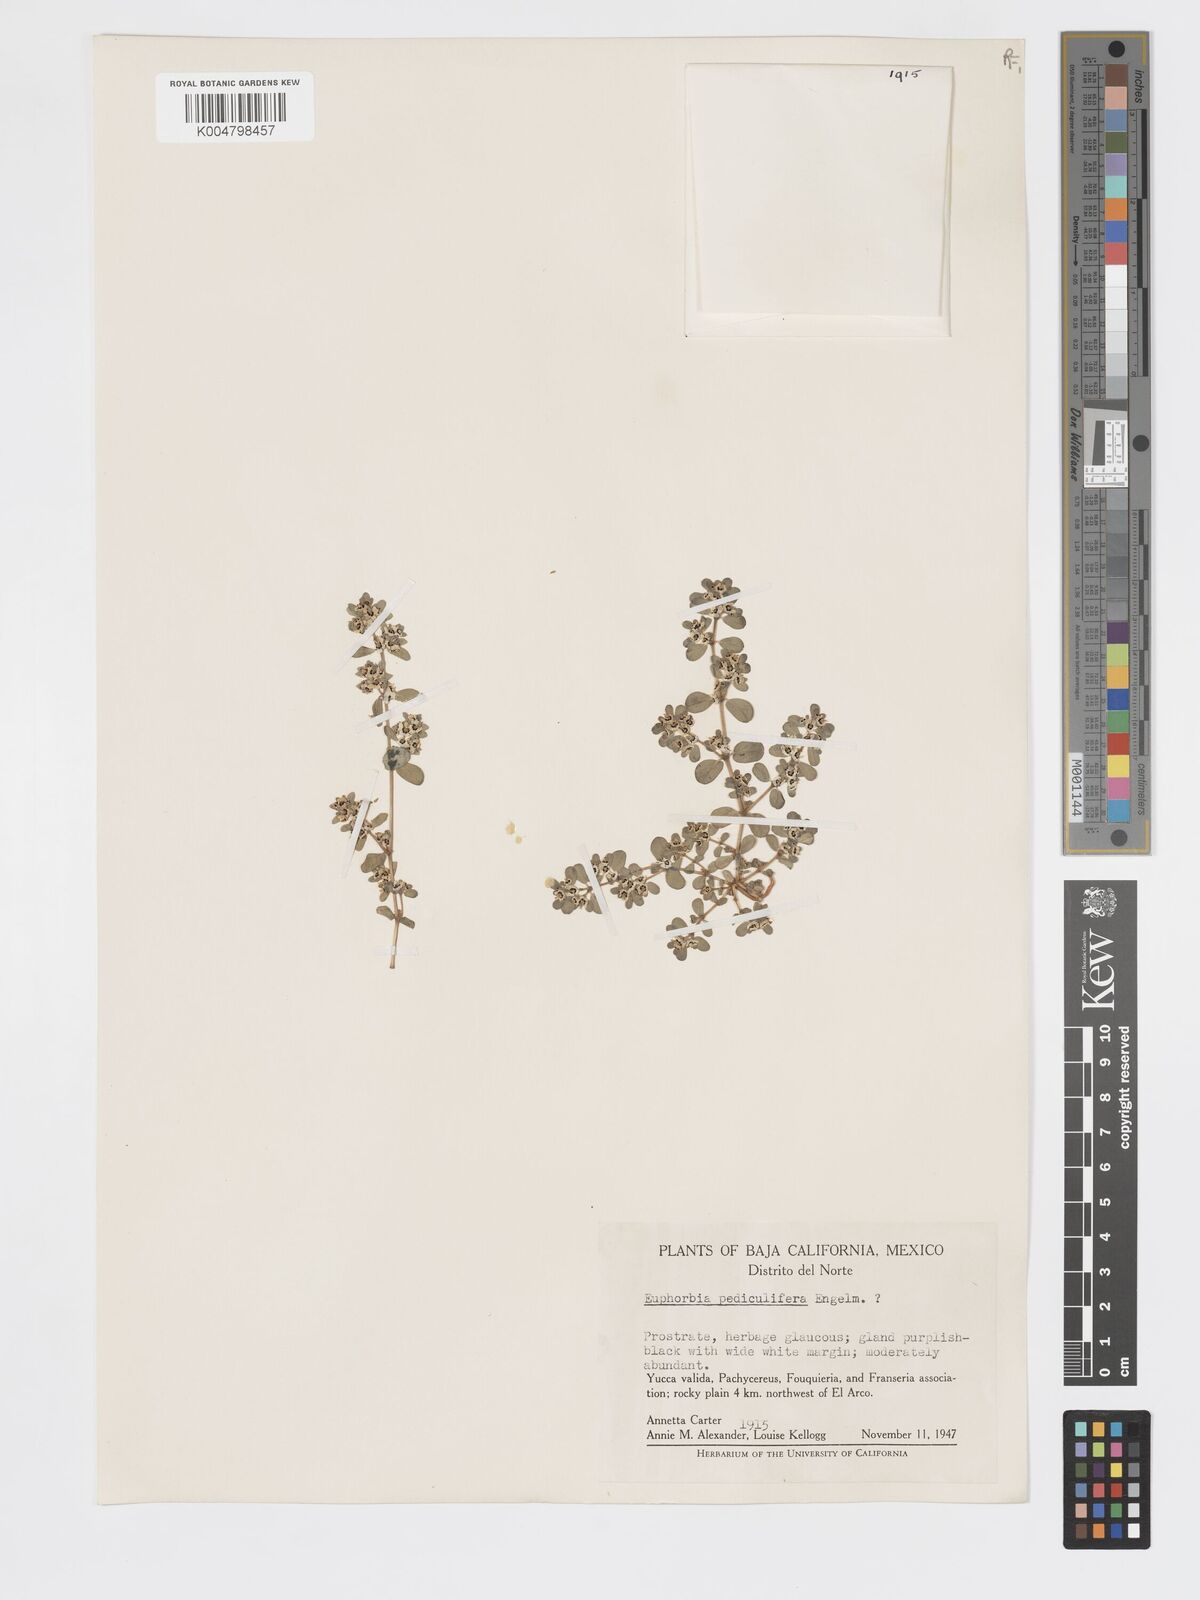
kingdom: Plantae
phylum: Tracheophyta
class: Magnoliopsida
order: Malpighiales
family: Euphorbiaceae
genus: Euphorbia
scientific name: Euphorbia pediculifera
